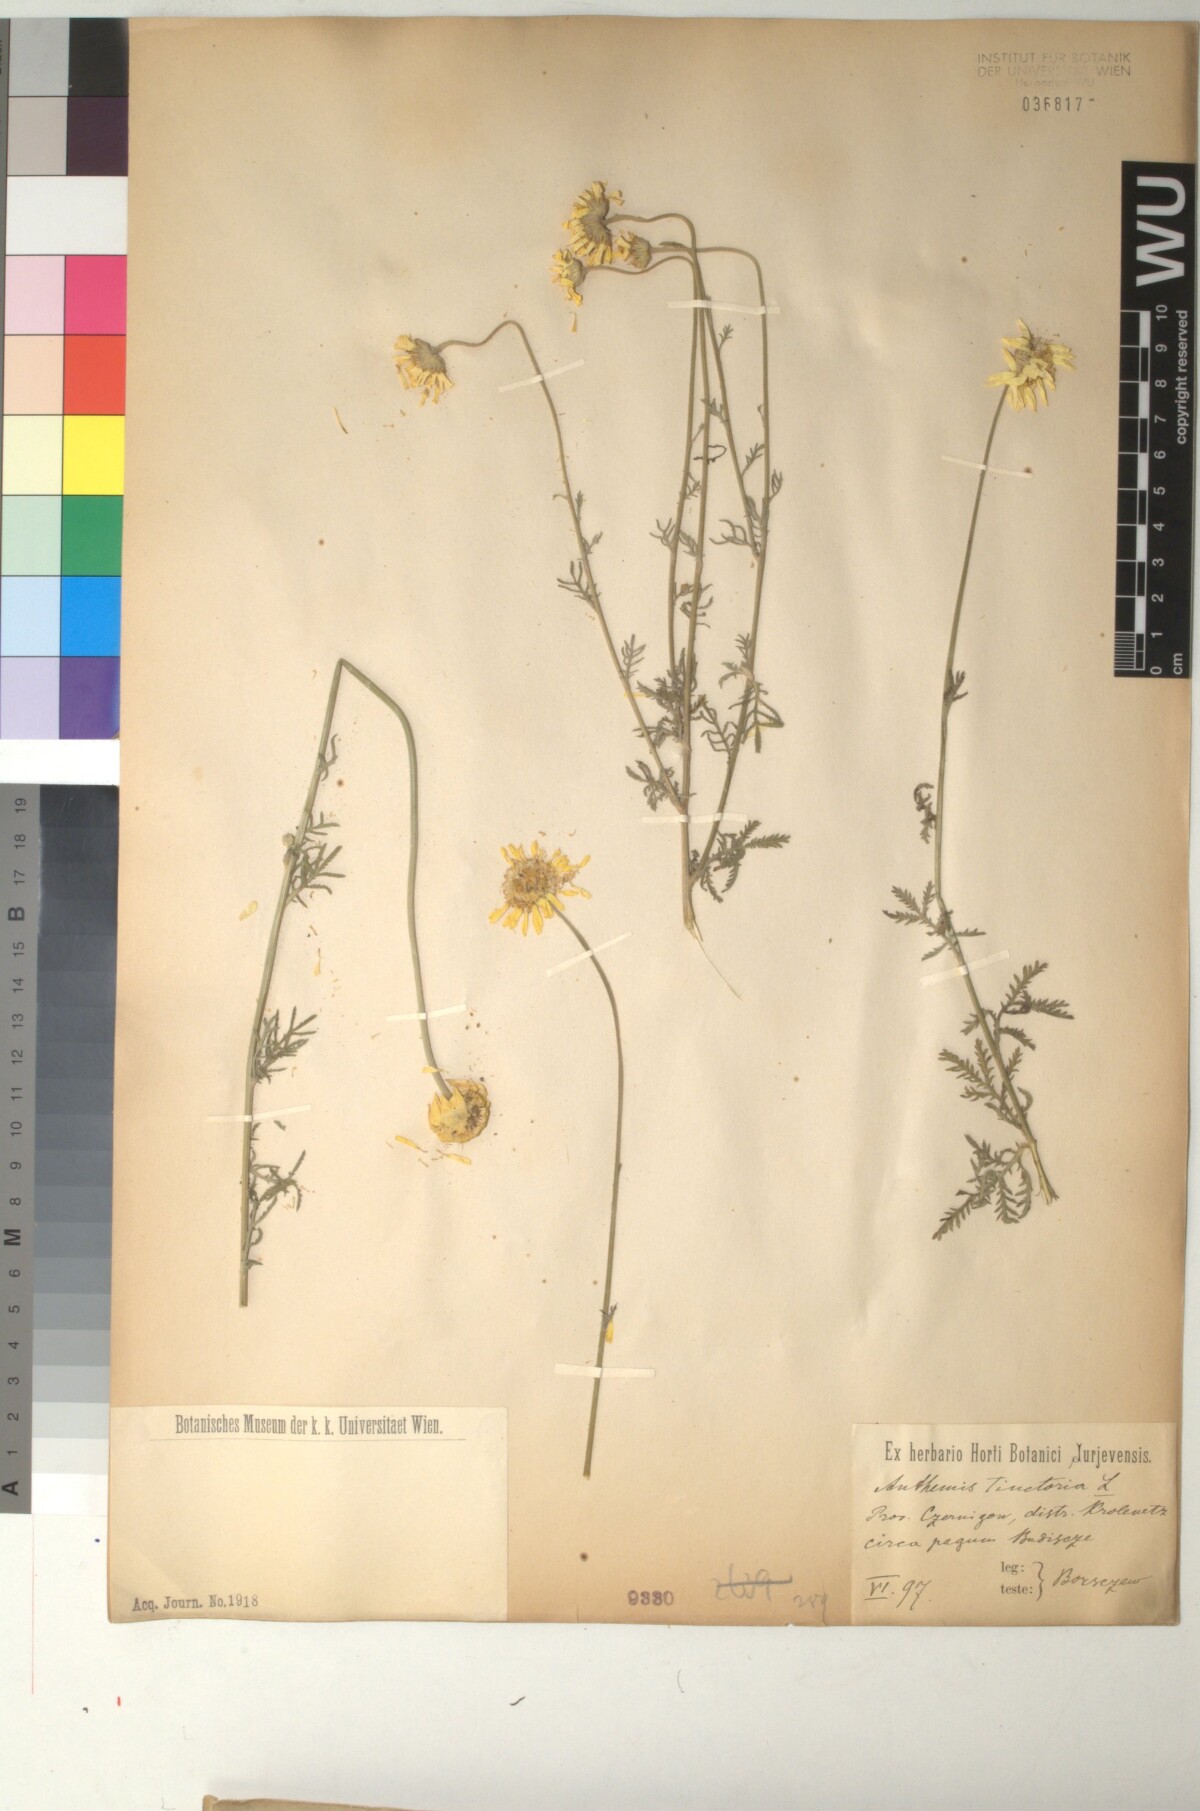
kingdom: Plantae
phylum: Tracheophyta
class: Magnoliopsida
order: Asterales
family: Asteraceae
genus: Cota
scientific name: Cota tinctoria
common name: Golden chamomile
